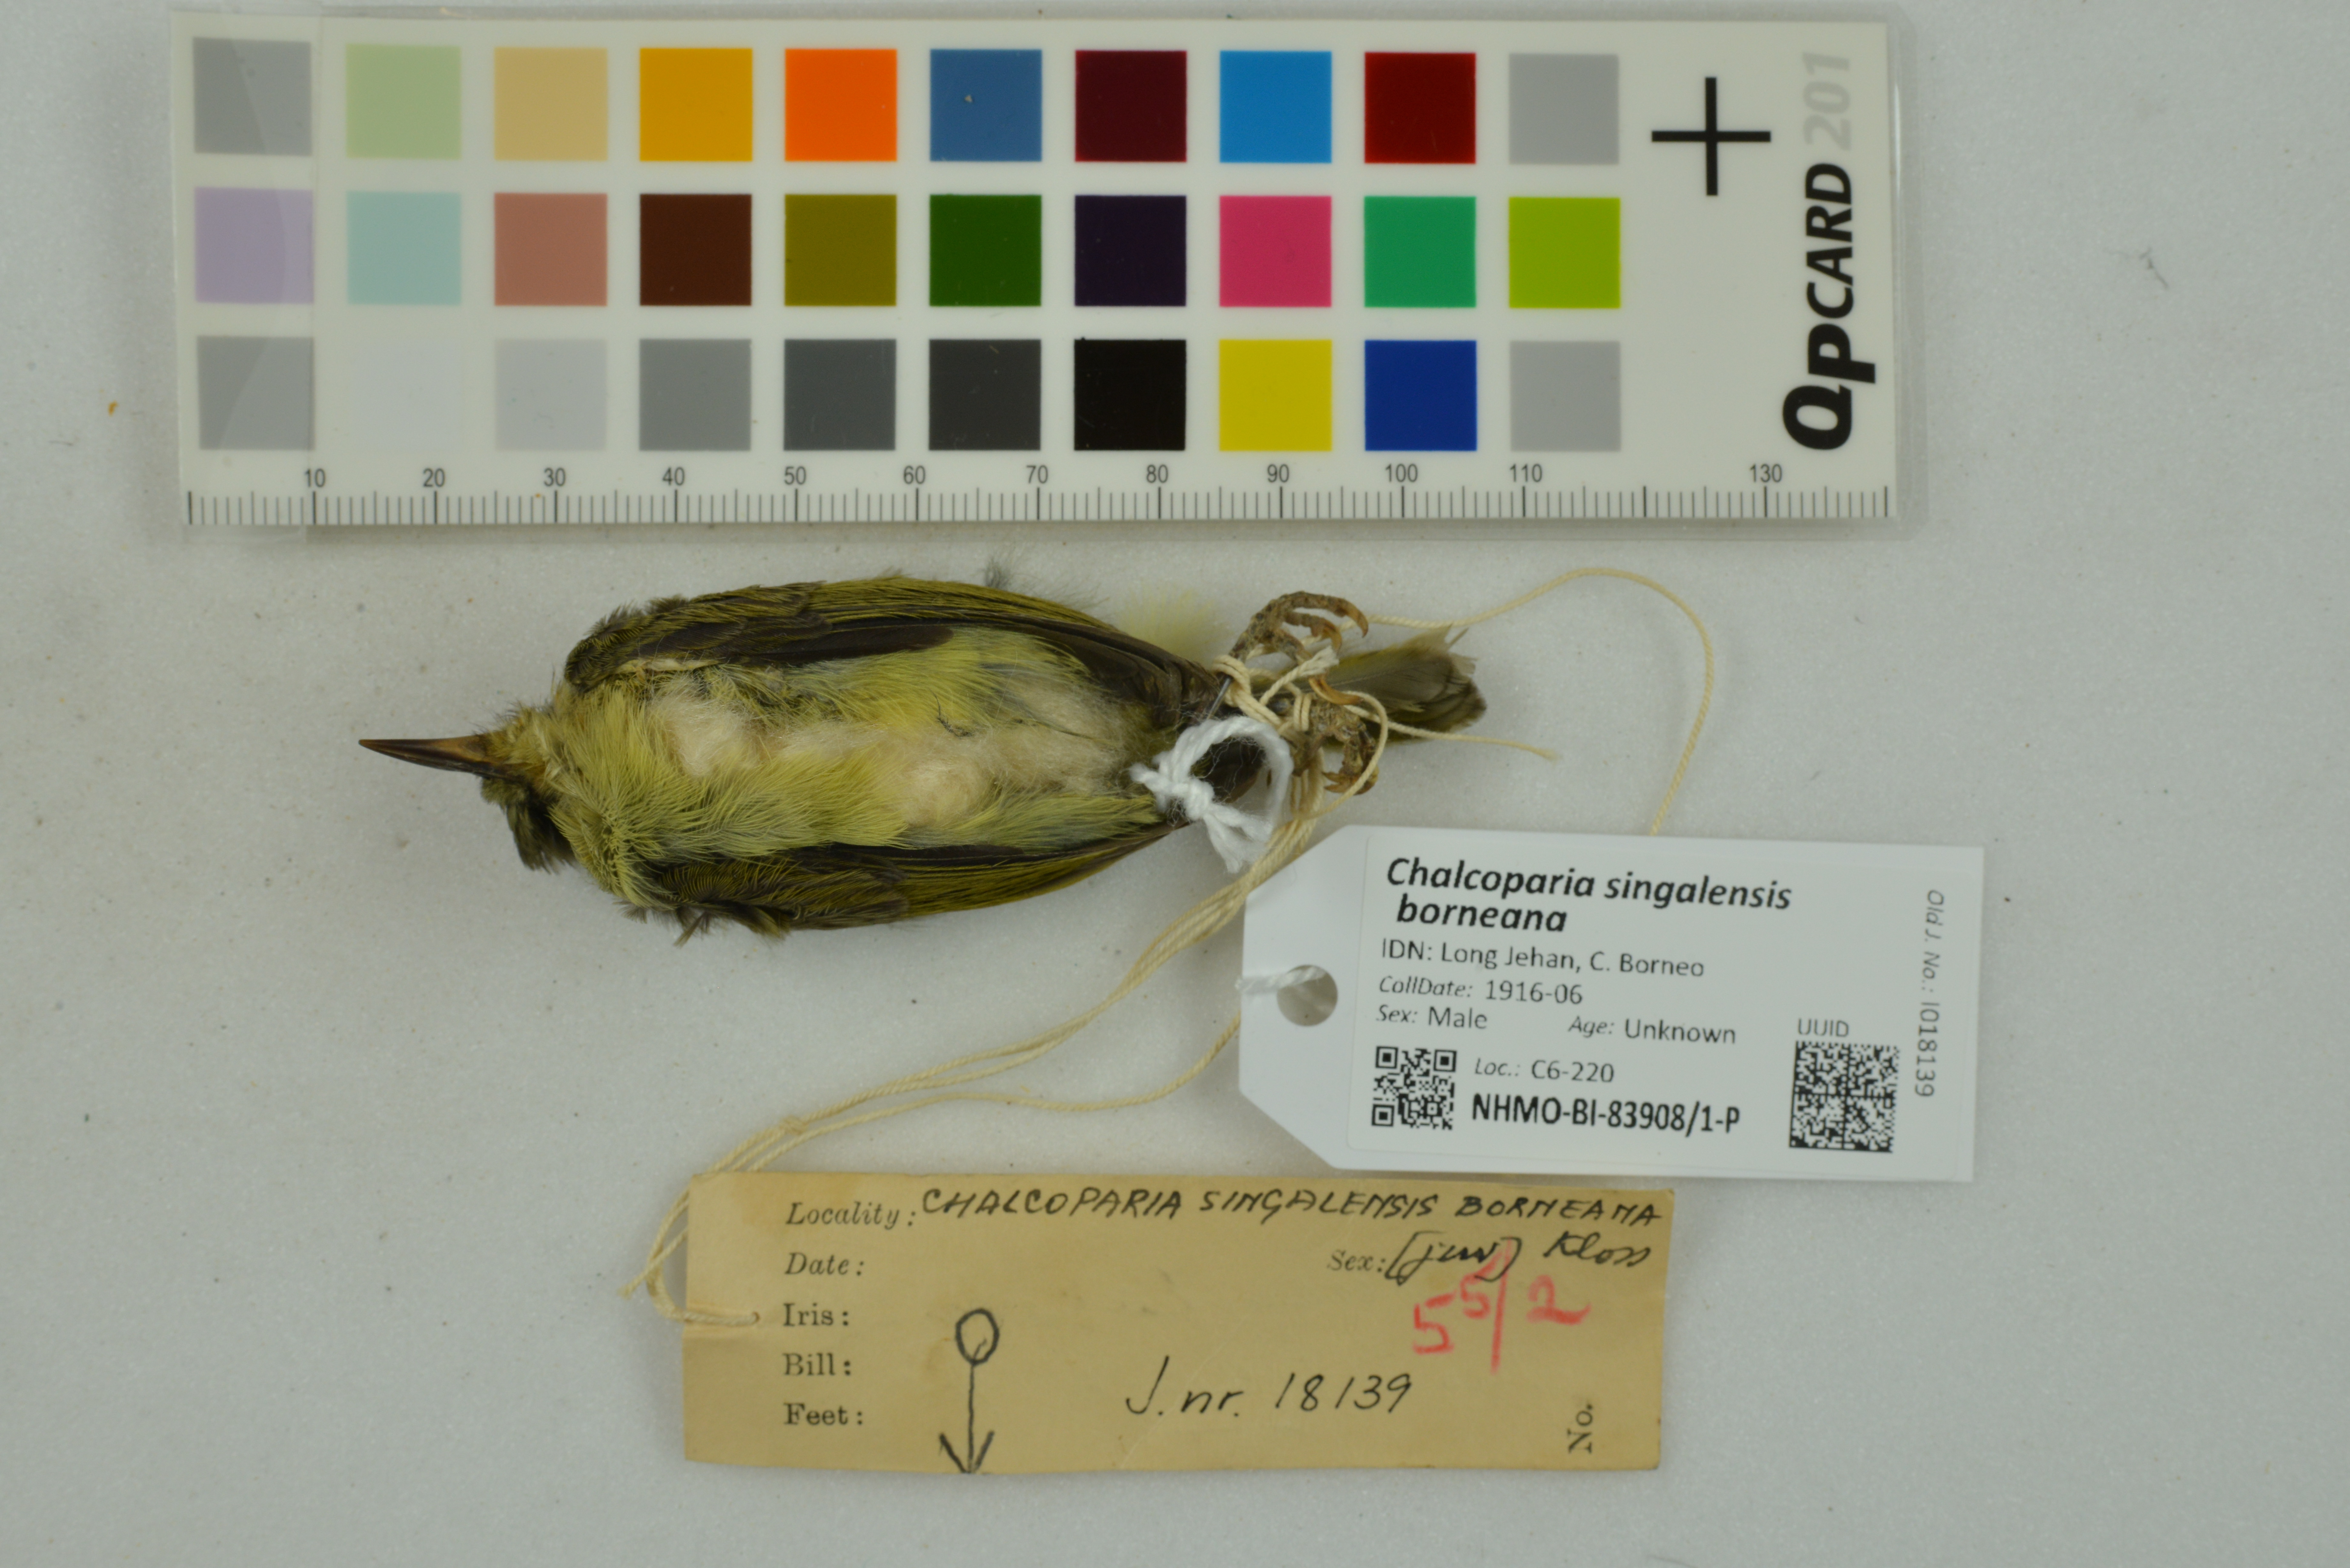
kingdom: Animalia
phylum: Chordata
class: Aves
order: Passeriformes
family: Nectariniidae
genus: Chalcoparia
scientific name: Chalcoparia singalensis
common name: Ruby-cheeked sunbird
